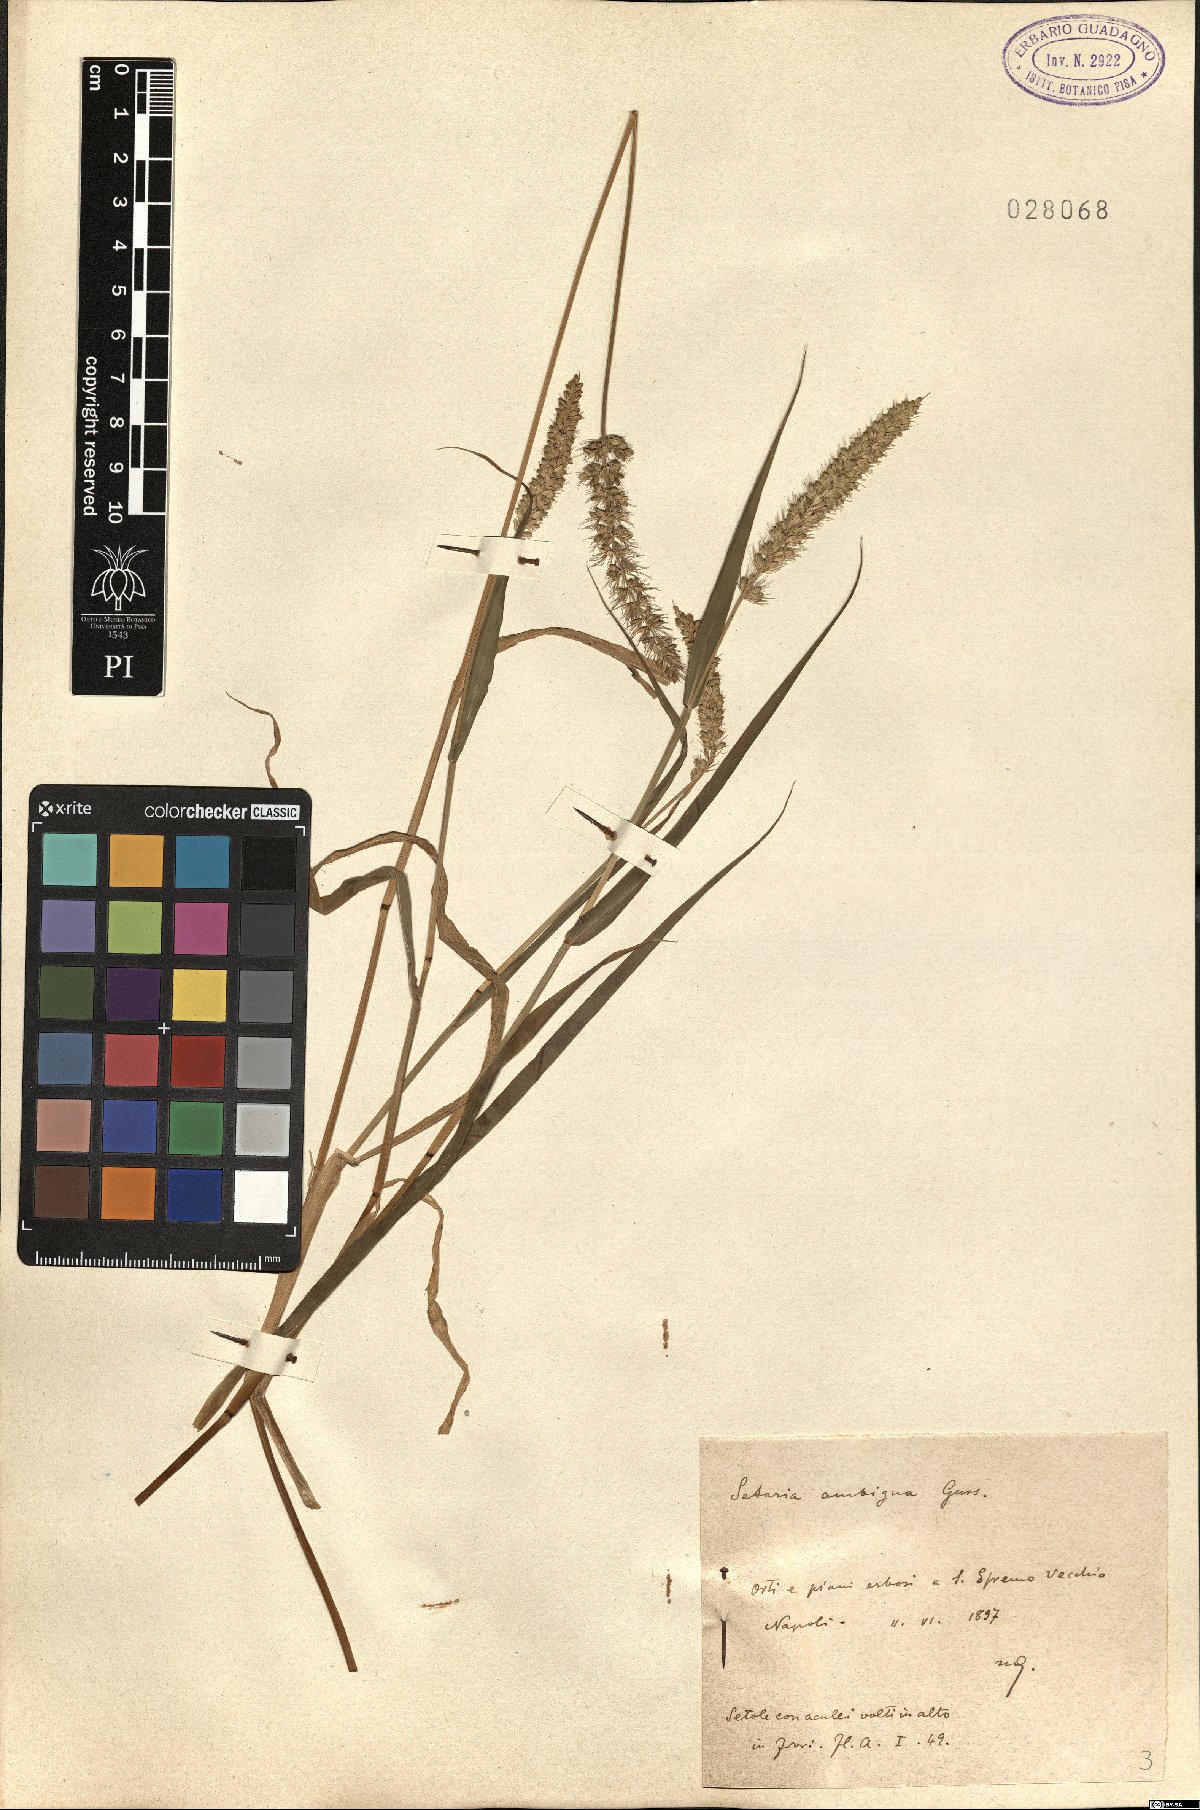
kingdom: Plantae
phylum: Tracheophyta
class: Liliopsida
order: Poales
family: Poaceae
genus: Setaria
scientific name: Setaria verticillata
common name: Hooked bristlegrass
